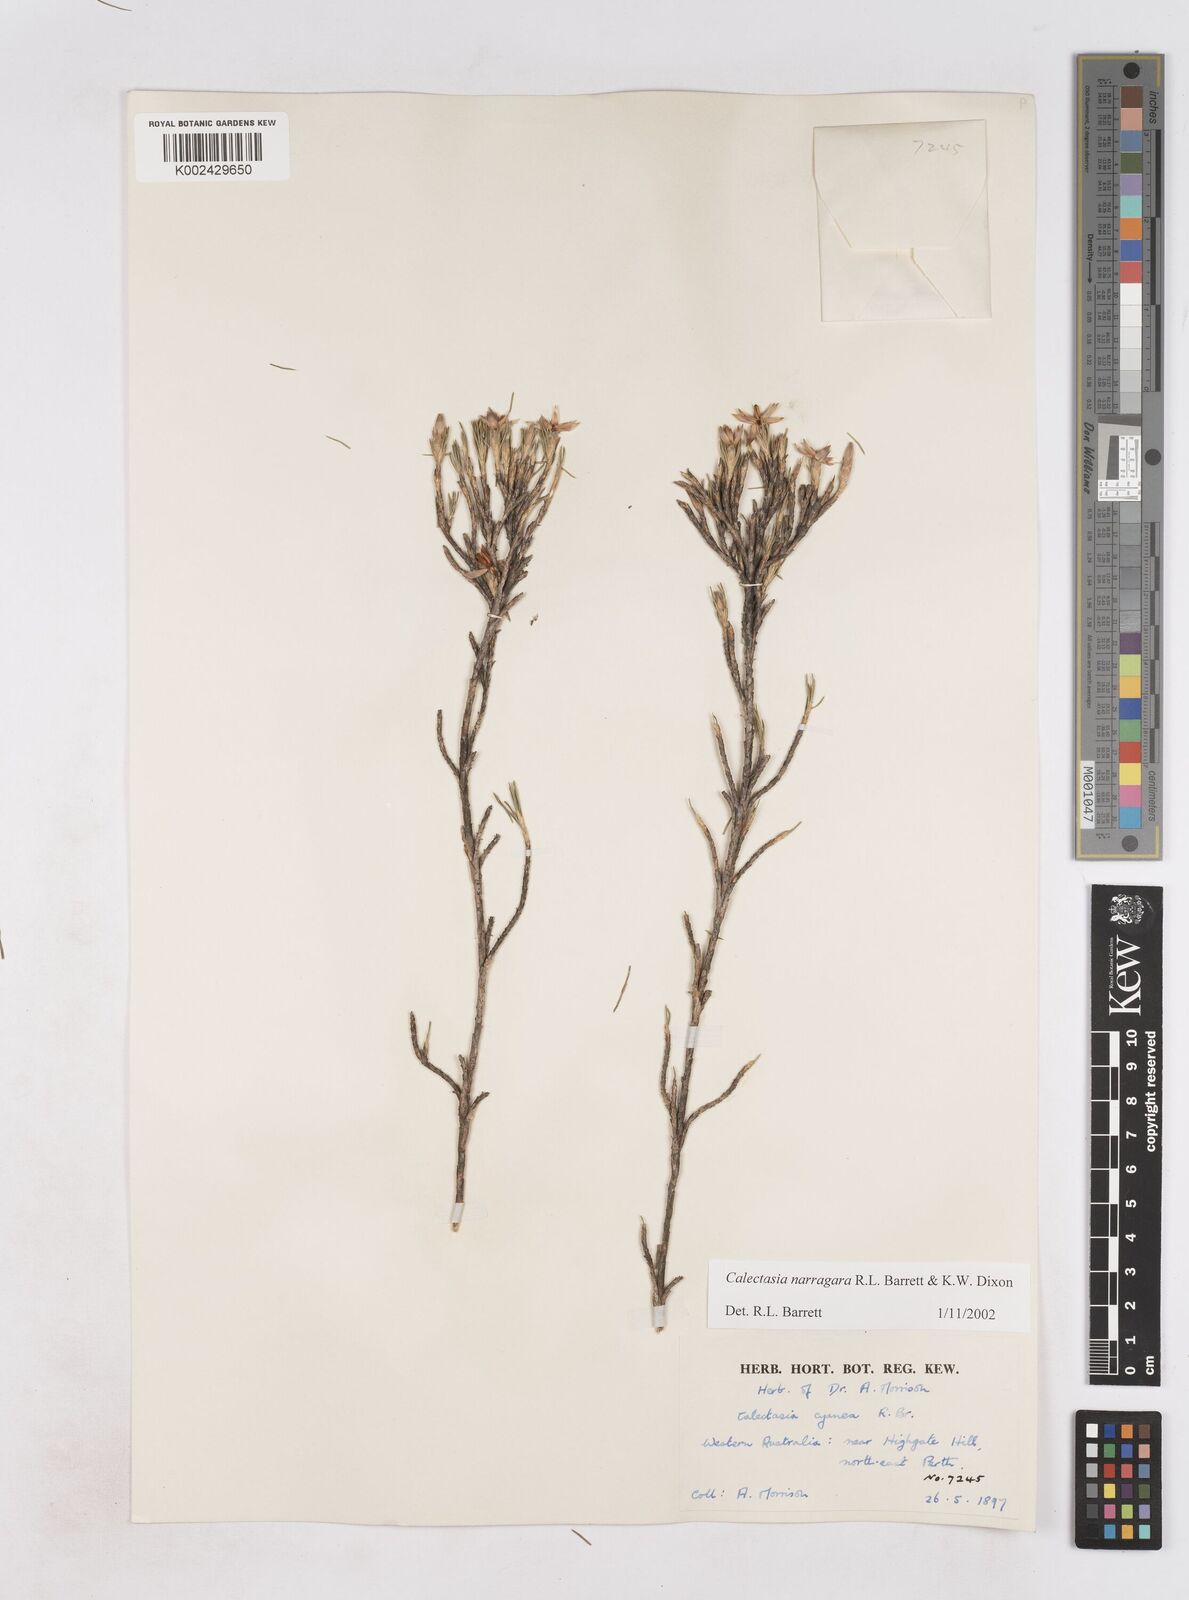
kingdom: Plantae
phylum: Tracheophyta
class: Liliopsida
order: Arecales
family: Dasypogonaceae
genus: Calectasia
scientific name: Calectasia narragara
